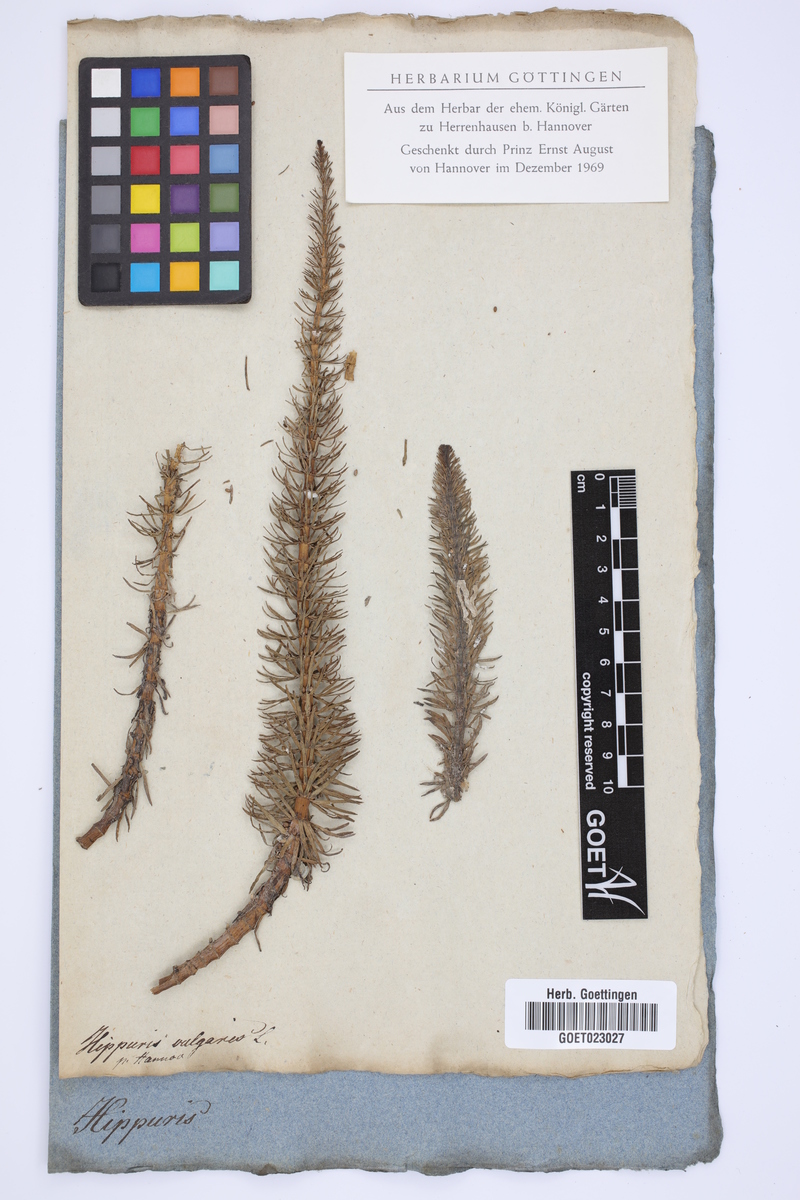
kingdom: Plantae
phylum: Tracheophyta
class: Magnoliopsida
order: Lamiales
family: Plantaginaceae
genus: Hippuris
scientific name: Hippuris vulgaris
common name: Mare's-tail
